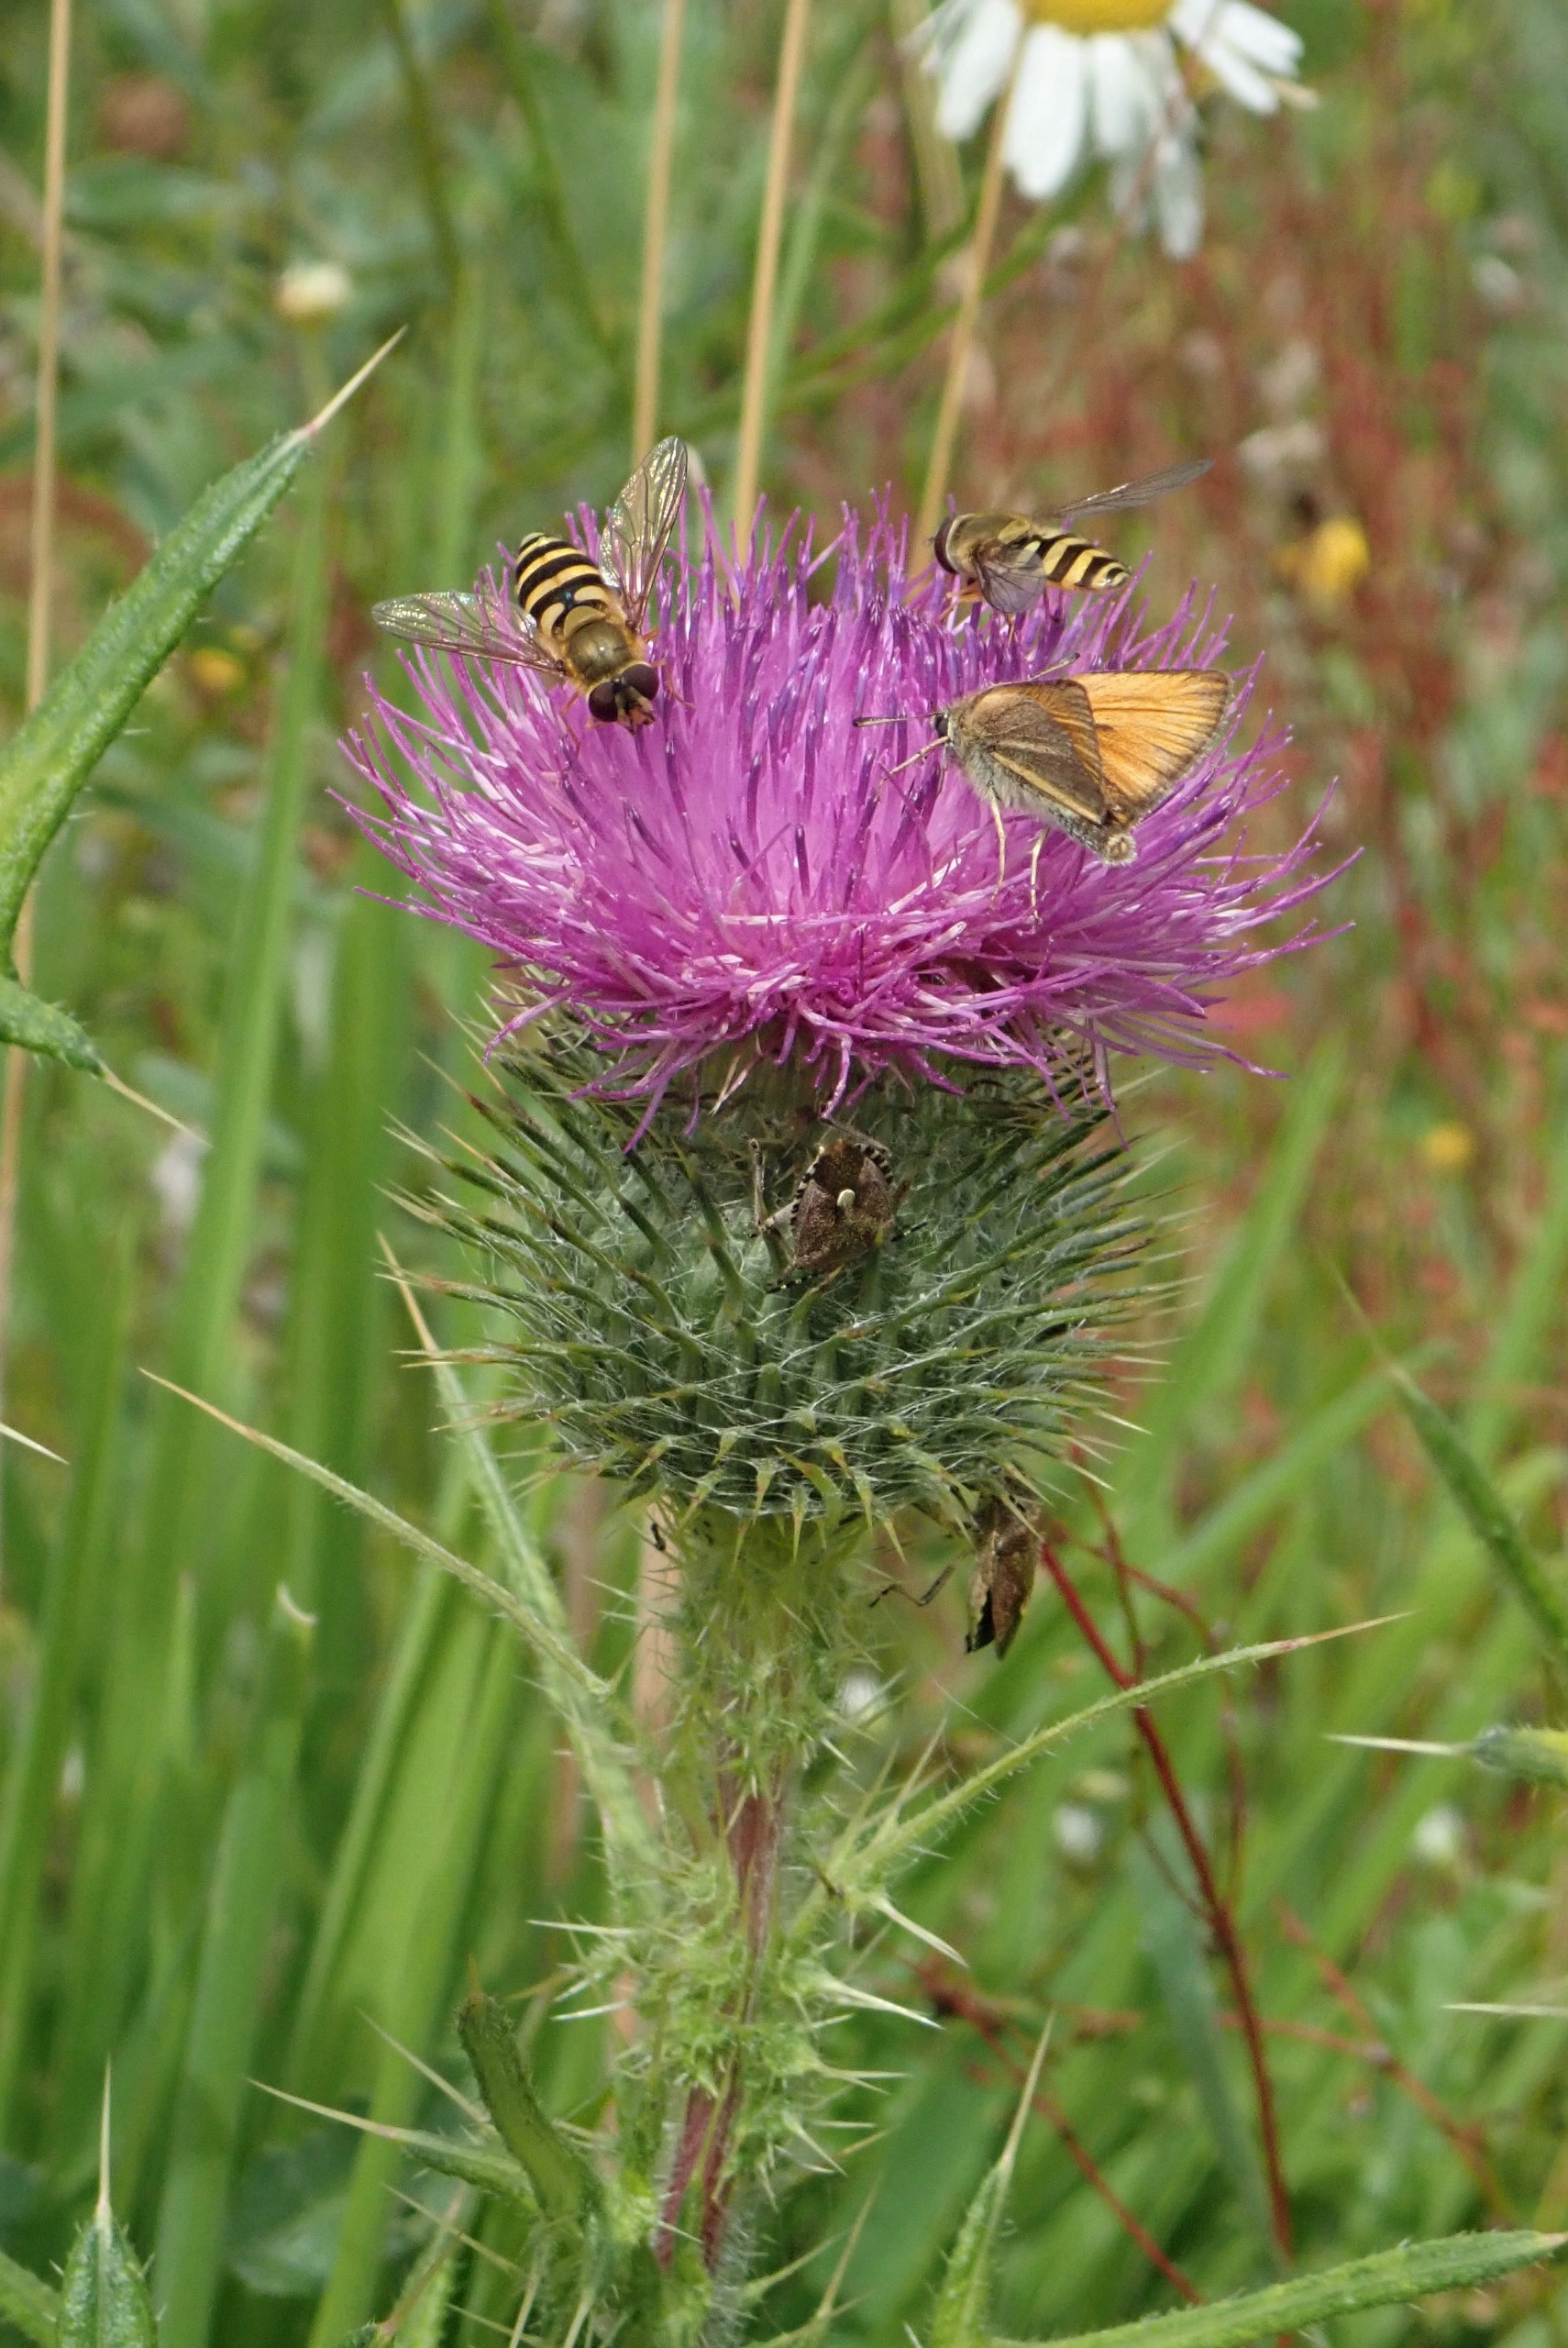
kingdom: Plantae
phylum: Tracheophyta
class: Magnoliopsida
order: Asterales
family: Asteraceae
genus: Cirsium
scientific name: Cirsium vulgare
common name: Horse-tidsel
